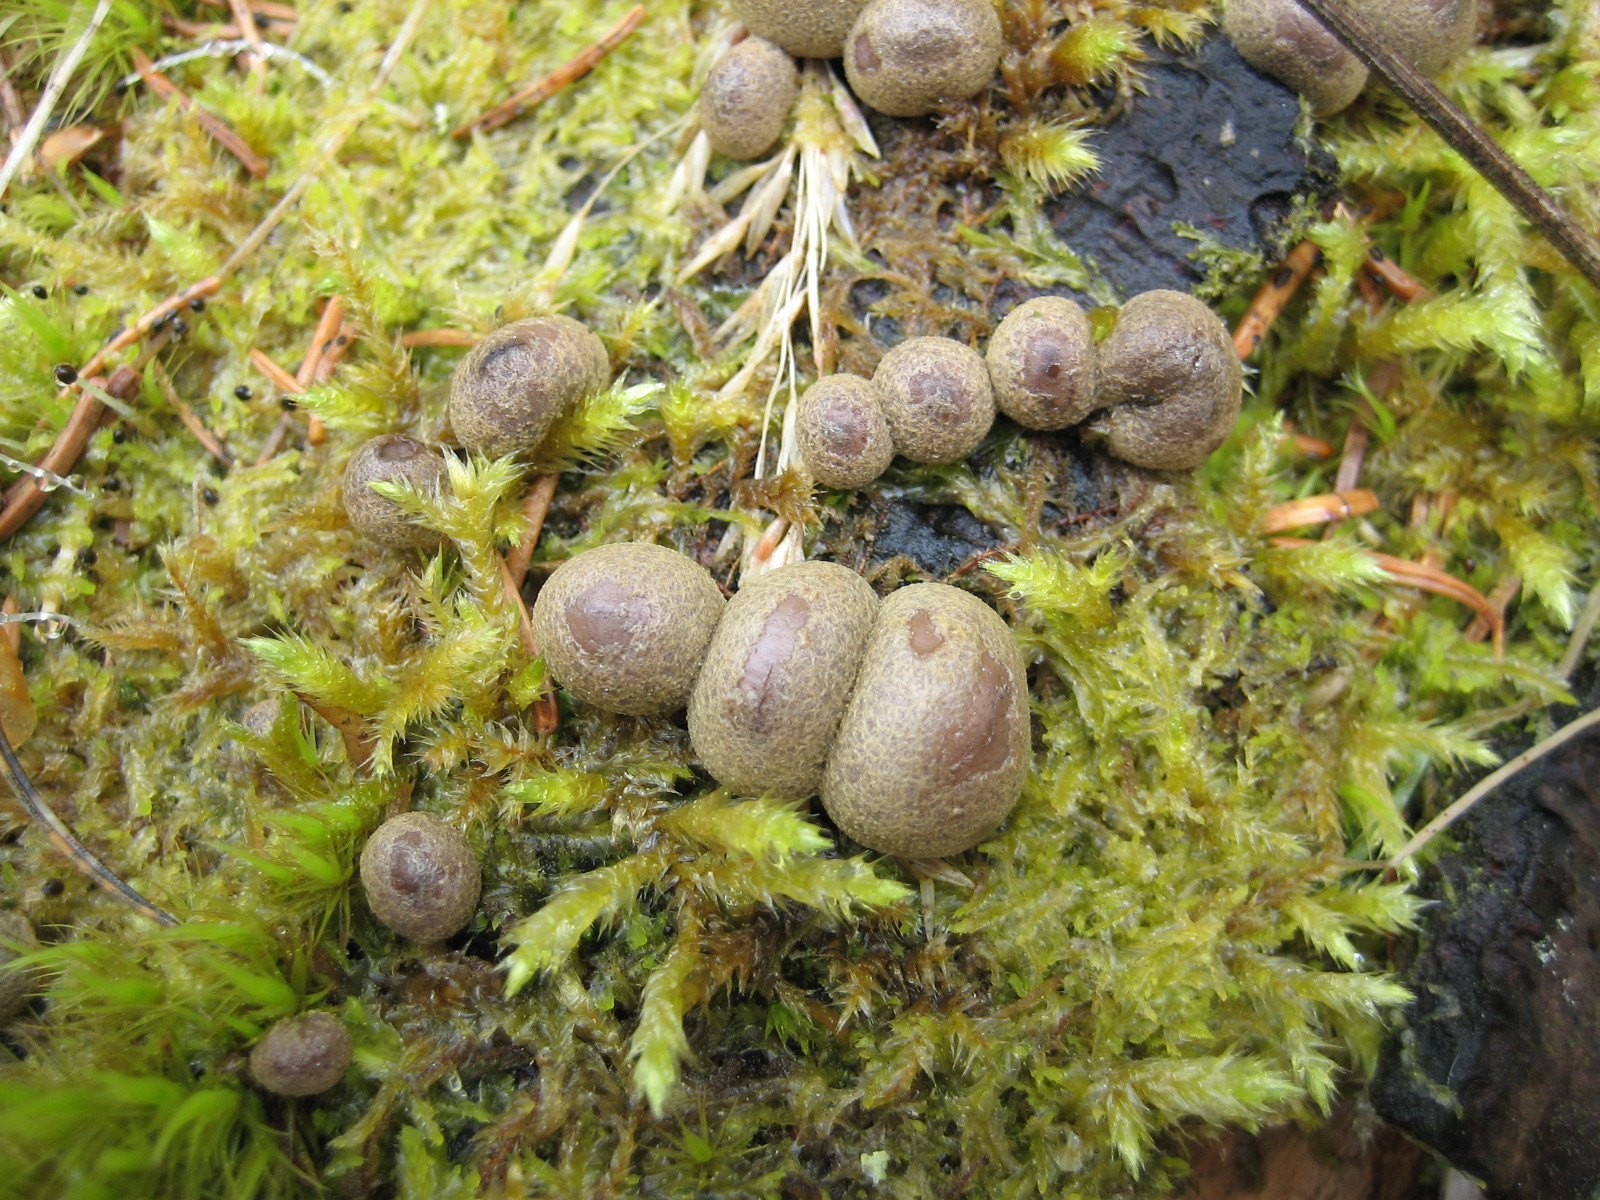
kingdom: Protozoa
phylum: Mycetozoa
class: Myxomycetes
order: Cribrariales
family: Tubiferaceae
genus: Lycogala
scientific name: Lycogala epidendrum
